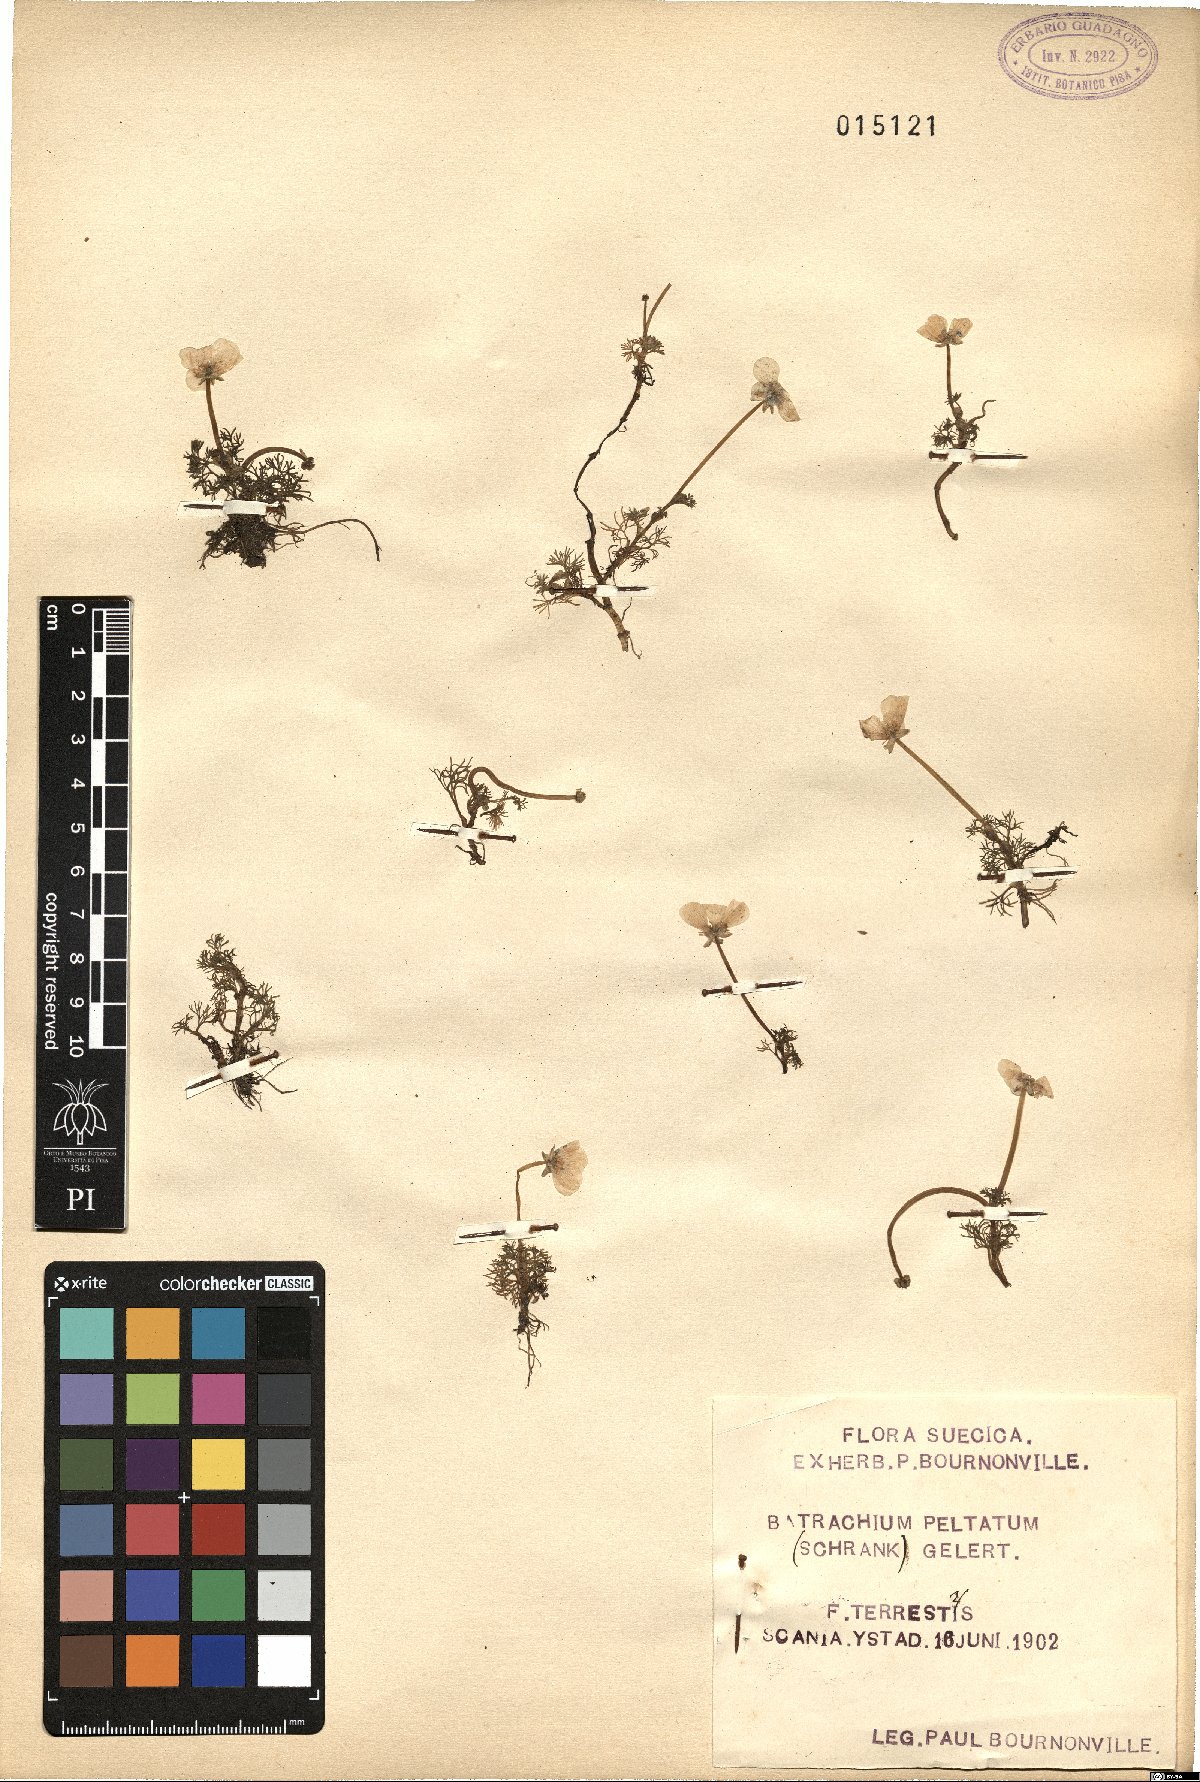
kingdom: Plantae
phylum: Tracheophyta
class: Magnoliopsida
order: Ranunculales
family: Ranunculaceae
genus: Ranunculus
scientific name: Ranunculus peltatus
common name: Pond water-crowfoot
